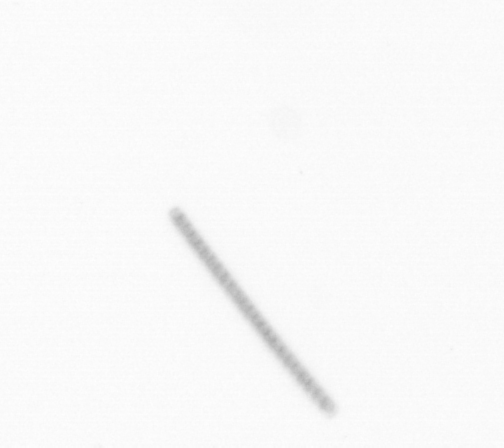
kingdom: Chromista
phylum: Ochrophyta
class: Bacillariophyceae
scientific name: Bacillariophyceae
